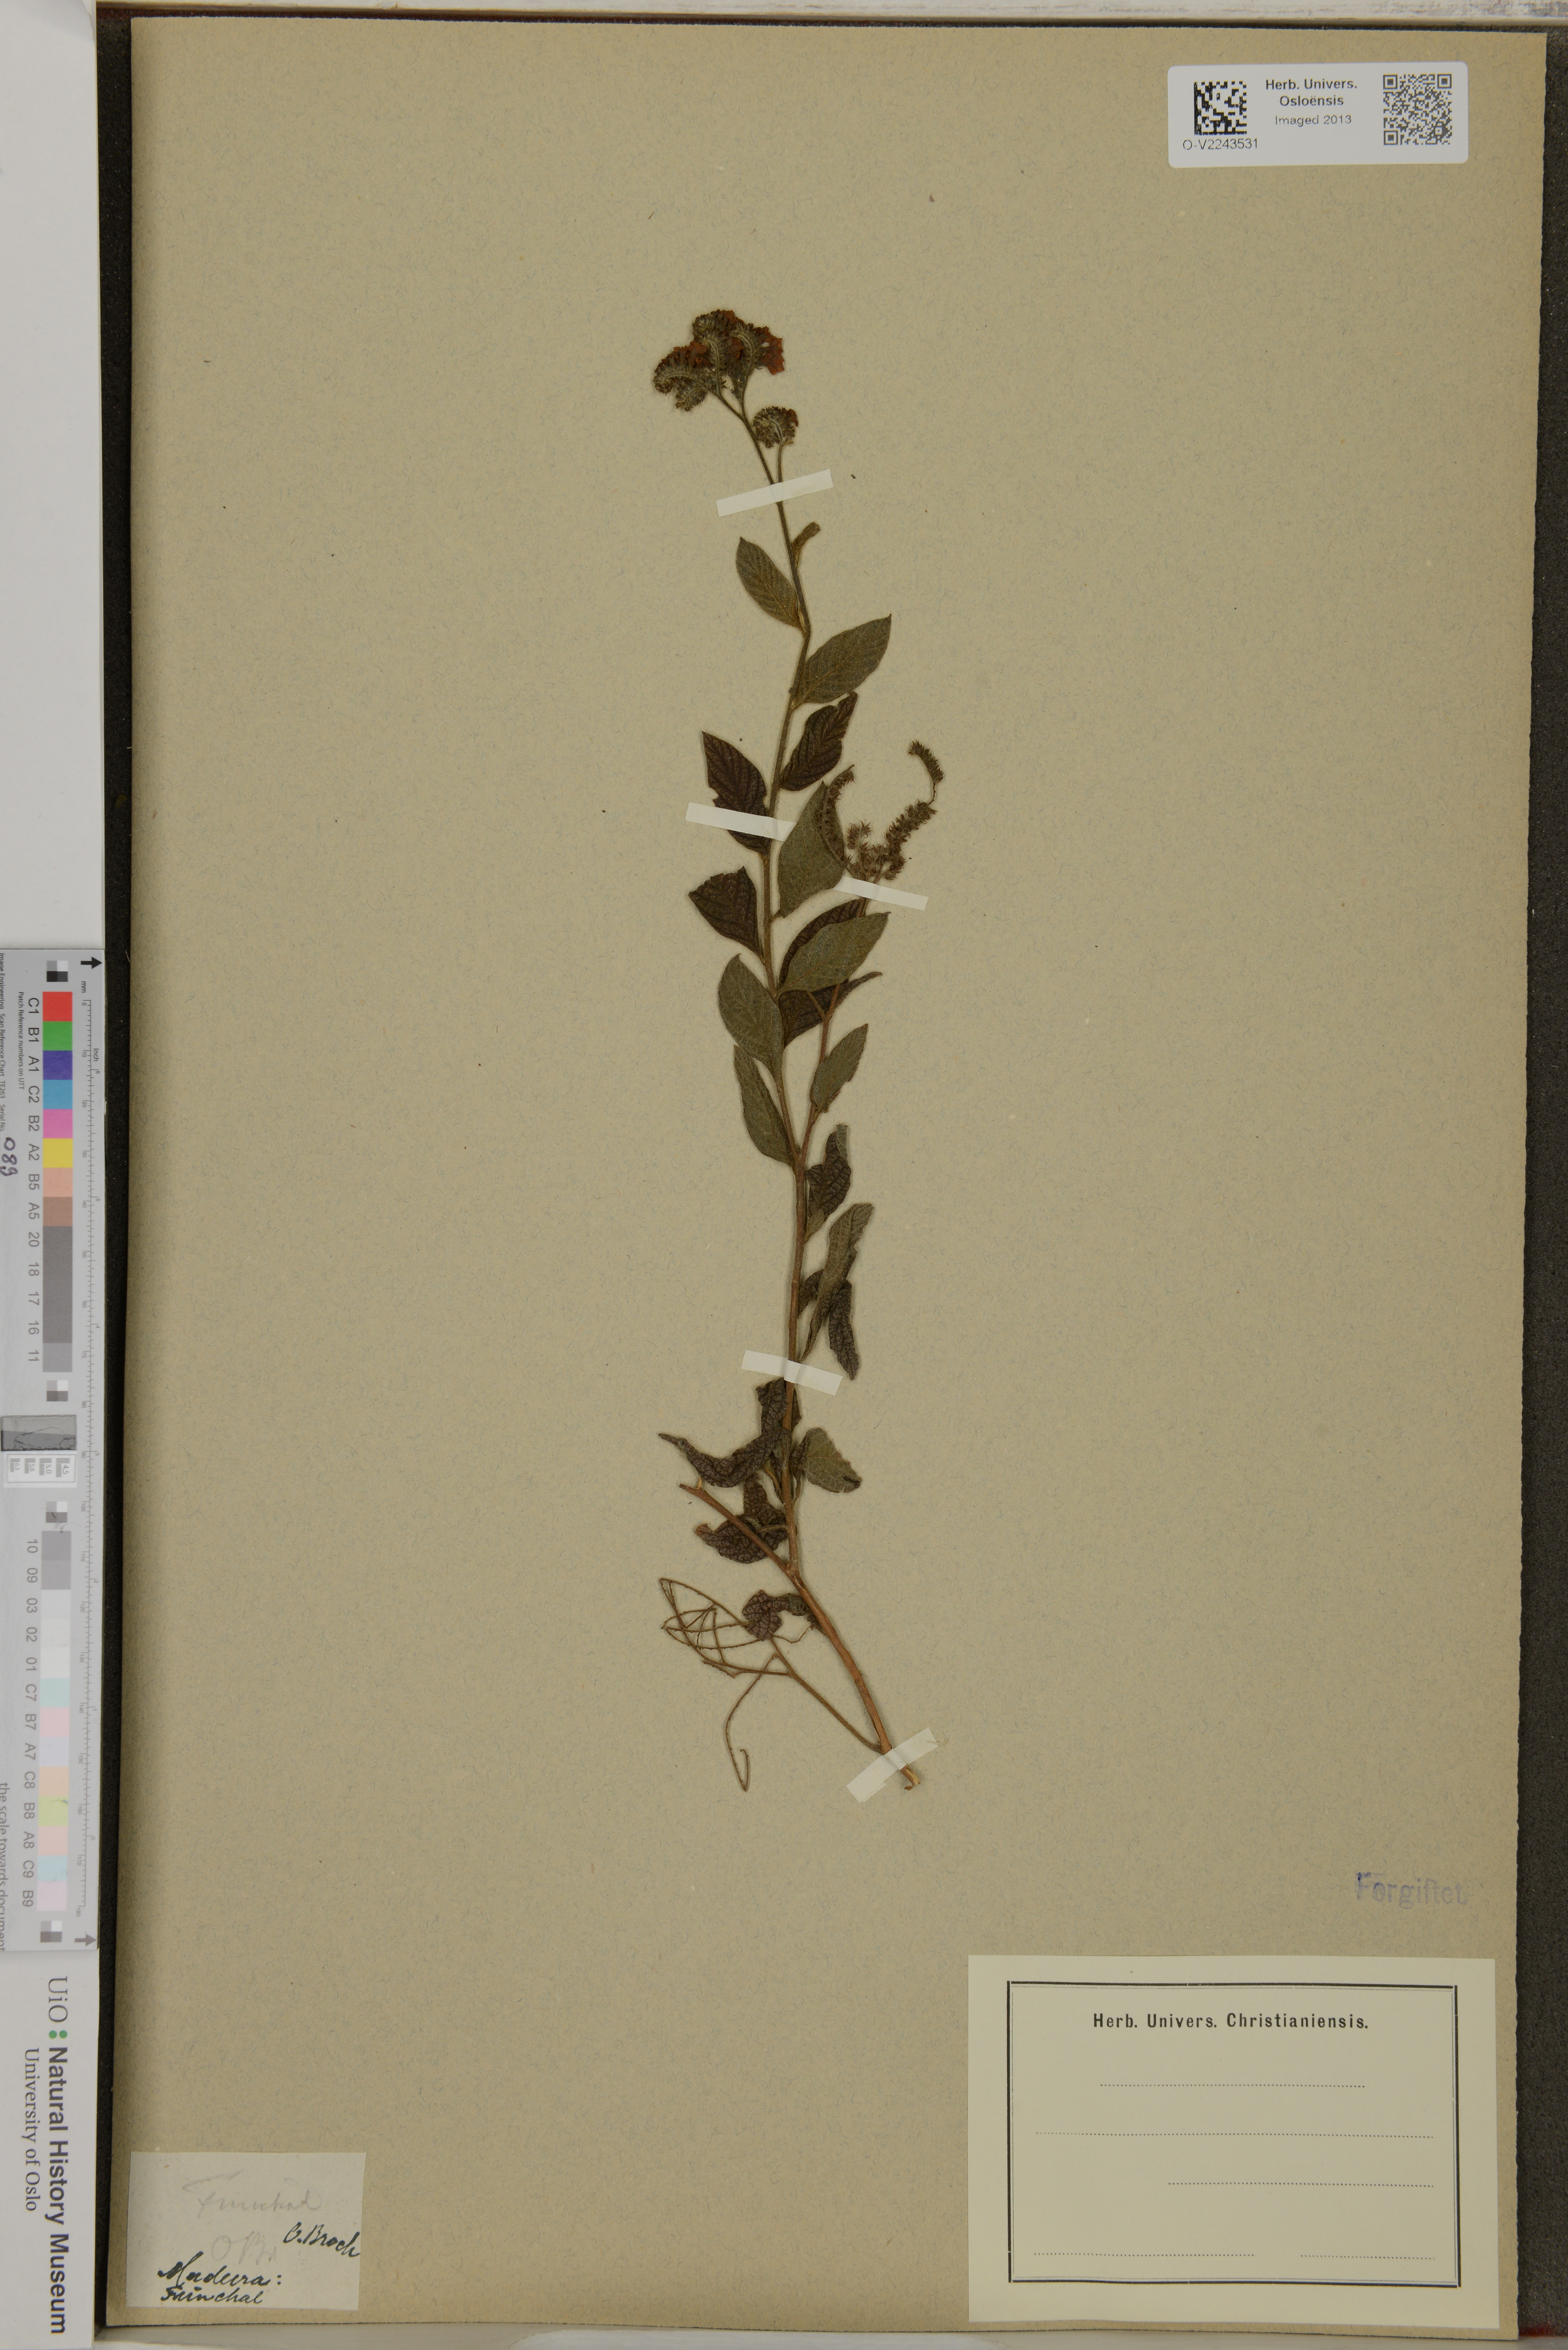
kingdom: Plantae
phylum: Tracheophyta
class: Magnoliopsida
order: Boraginales
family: Heliotropiaceae
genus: Heliotropium
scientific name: Heliotropium
